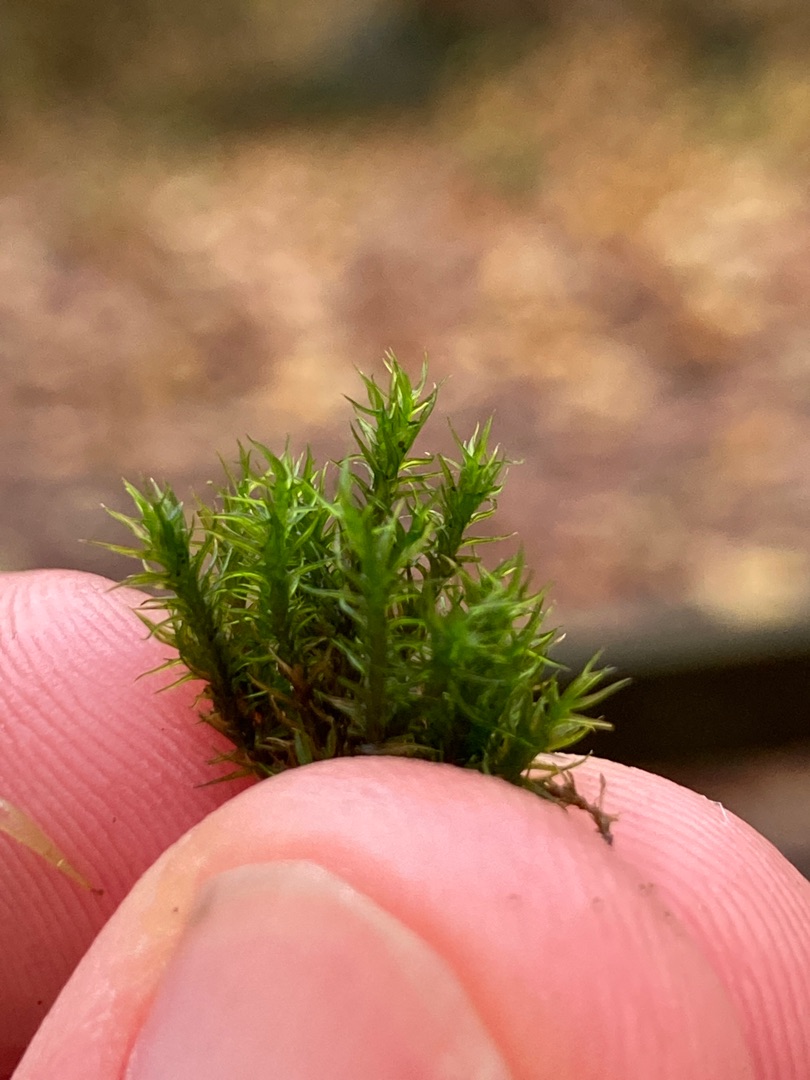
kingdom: Plantae
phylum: Bryophyta
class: Bryopsida
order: Grimmiales
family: Grimmiaceae
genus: Grimmia
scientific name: Grimmia hartmanii
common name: Hartmans gråmos
